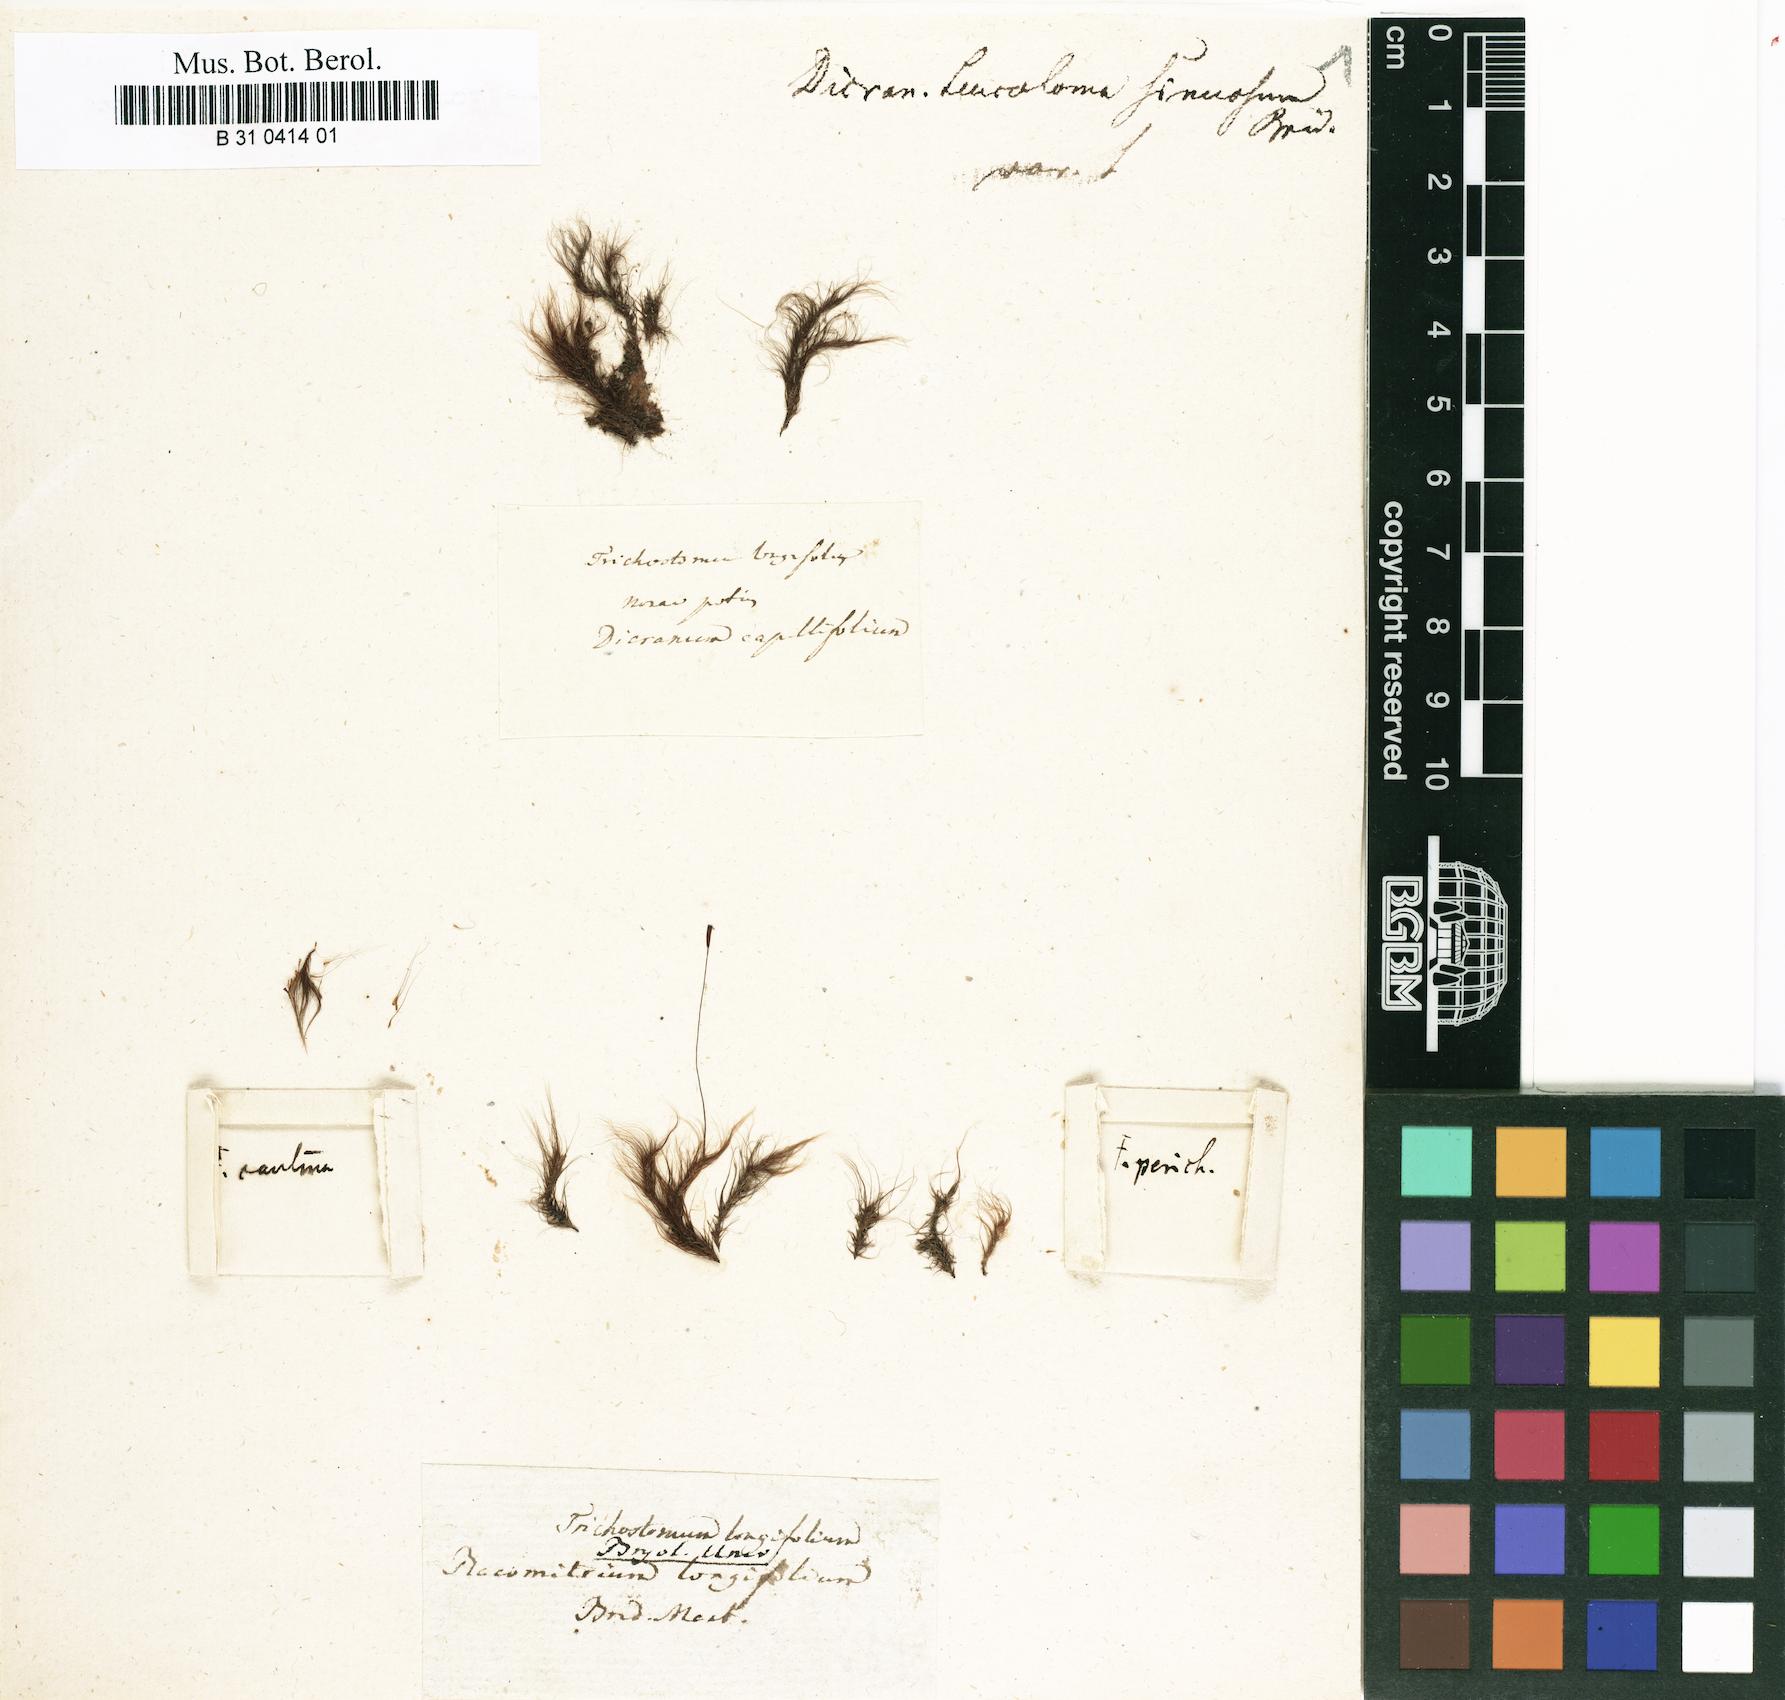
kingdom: Plantae
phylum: Bryophyta
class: Bryopsida
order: Dicranales
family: Dicranaceae
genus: Leucoloma
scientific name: Leucoloma longifolium
